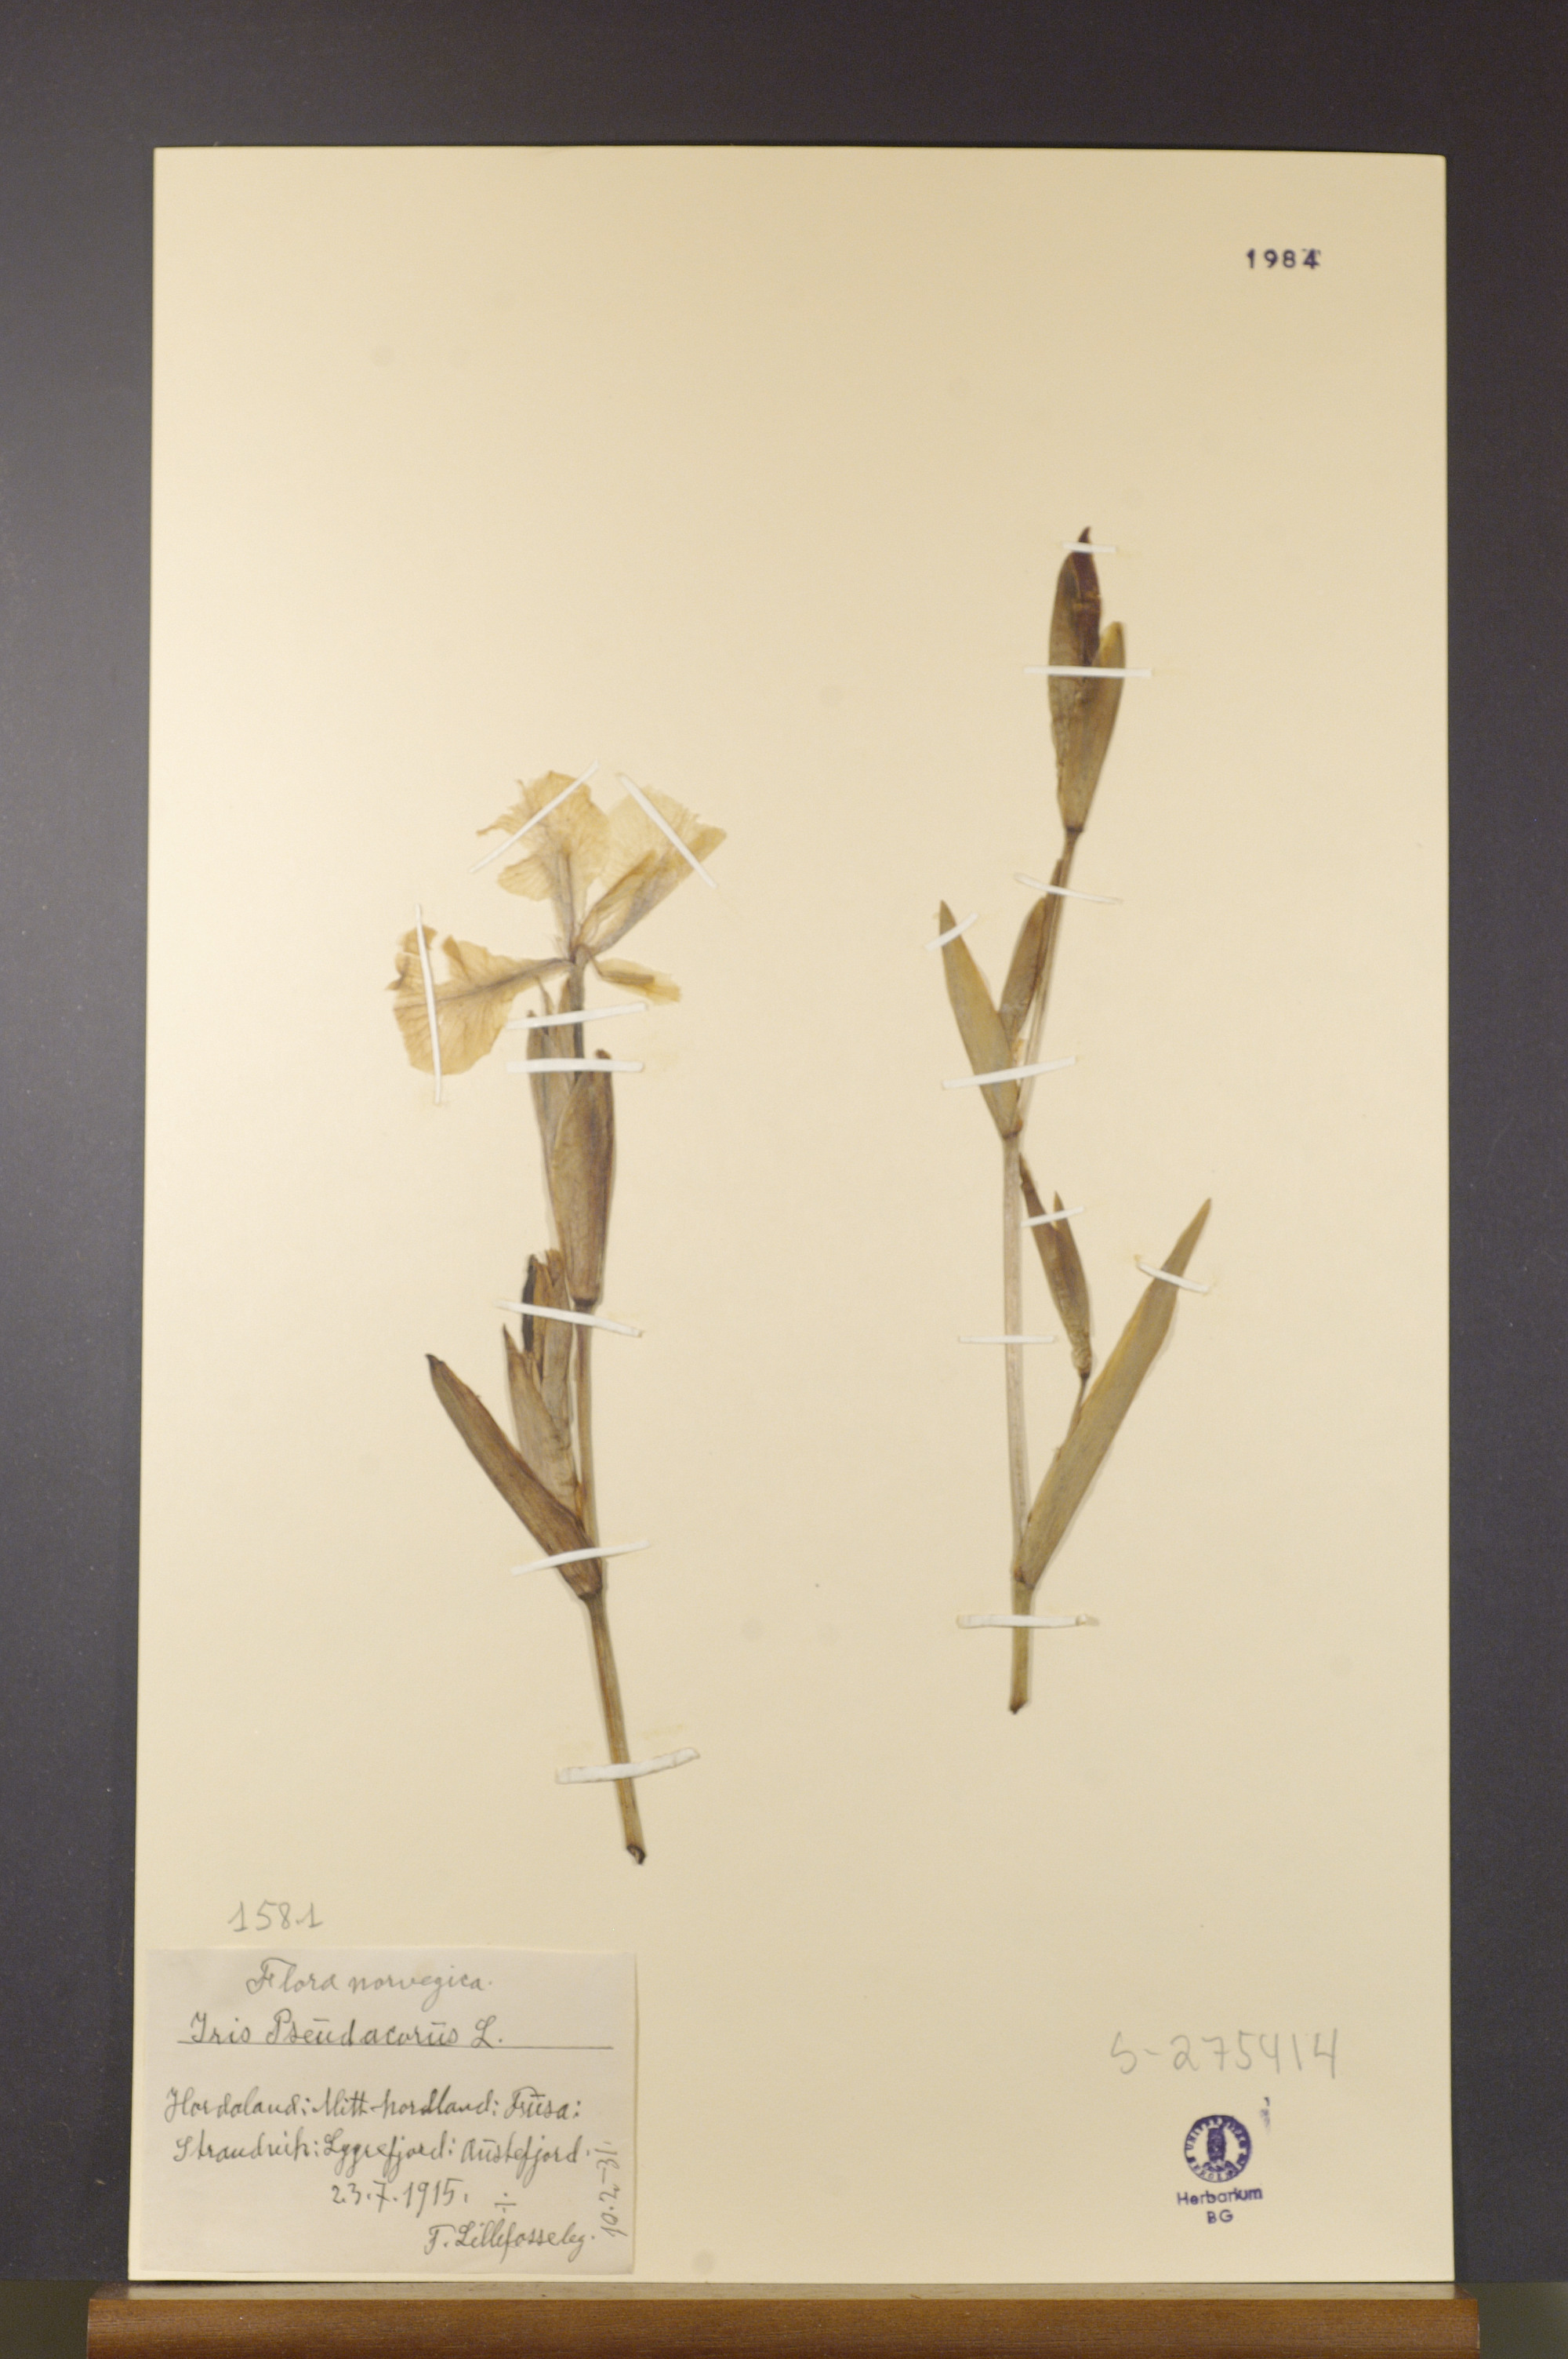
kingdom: Plantae
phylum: Tracheophyta
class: Liliopsida
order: Asparagales
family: Iridaceae
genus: Iris
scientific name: Iris pseudacorus
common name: Yellow flag
